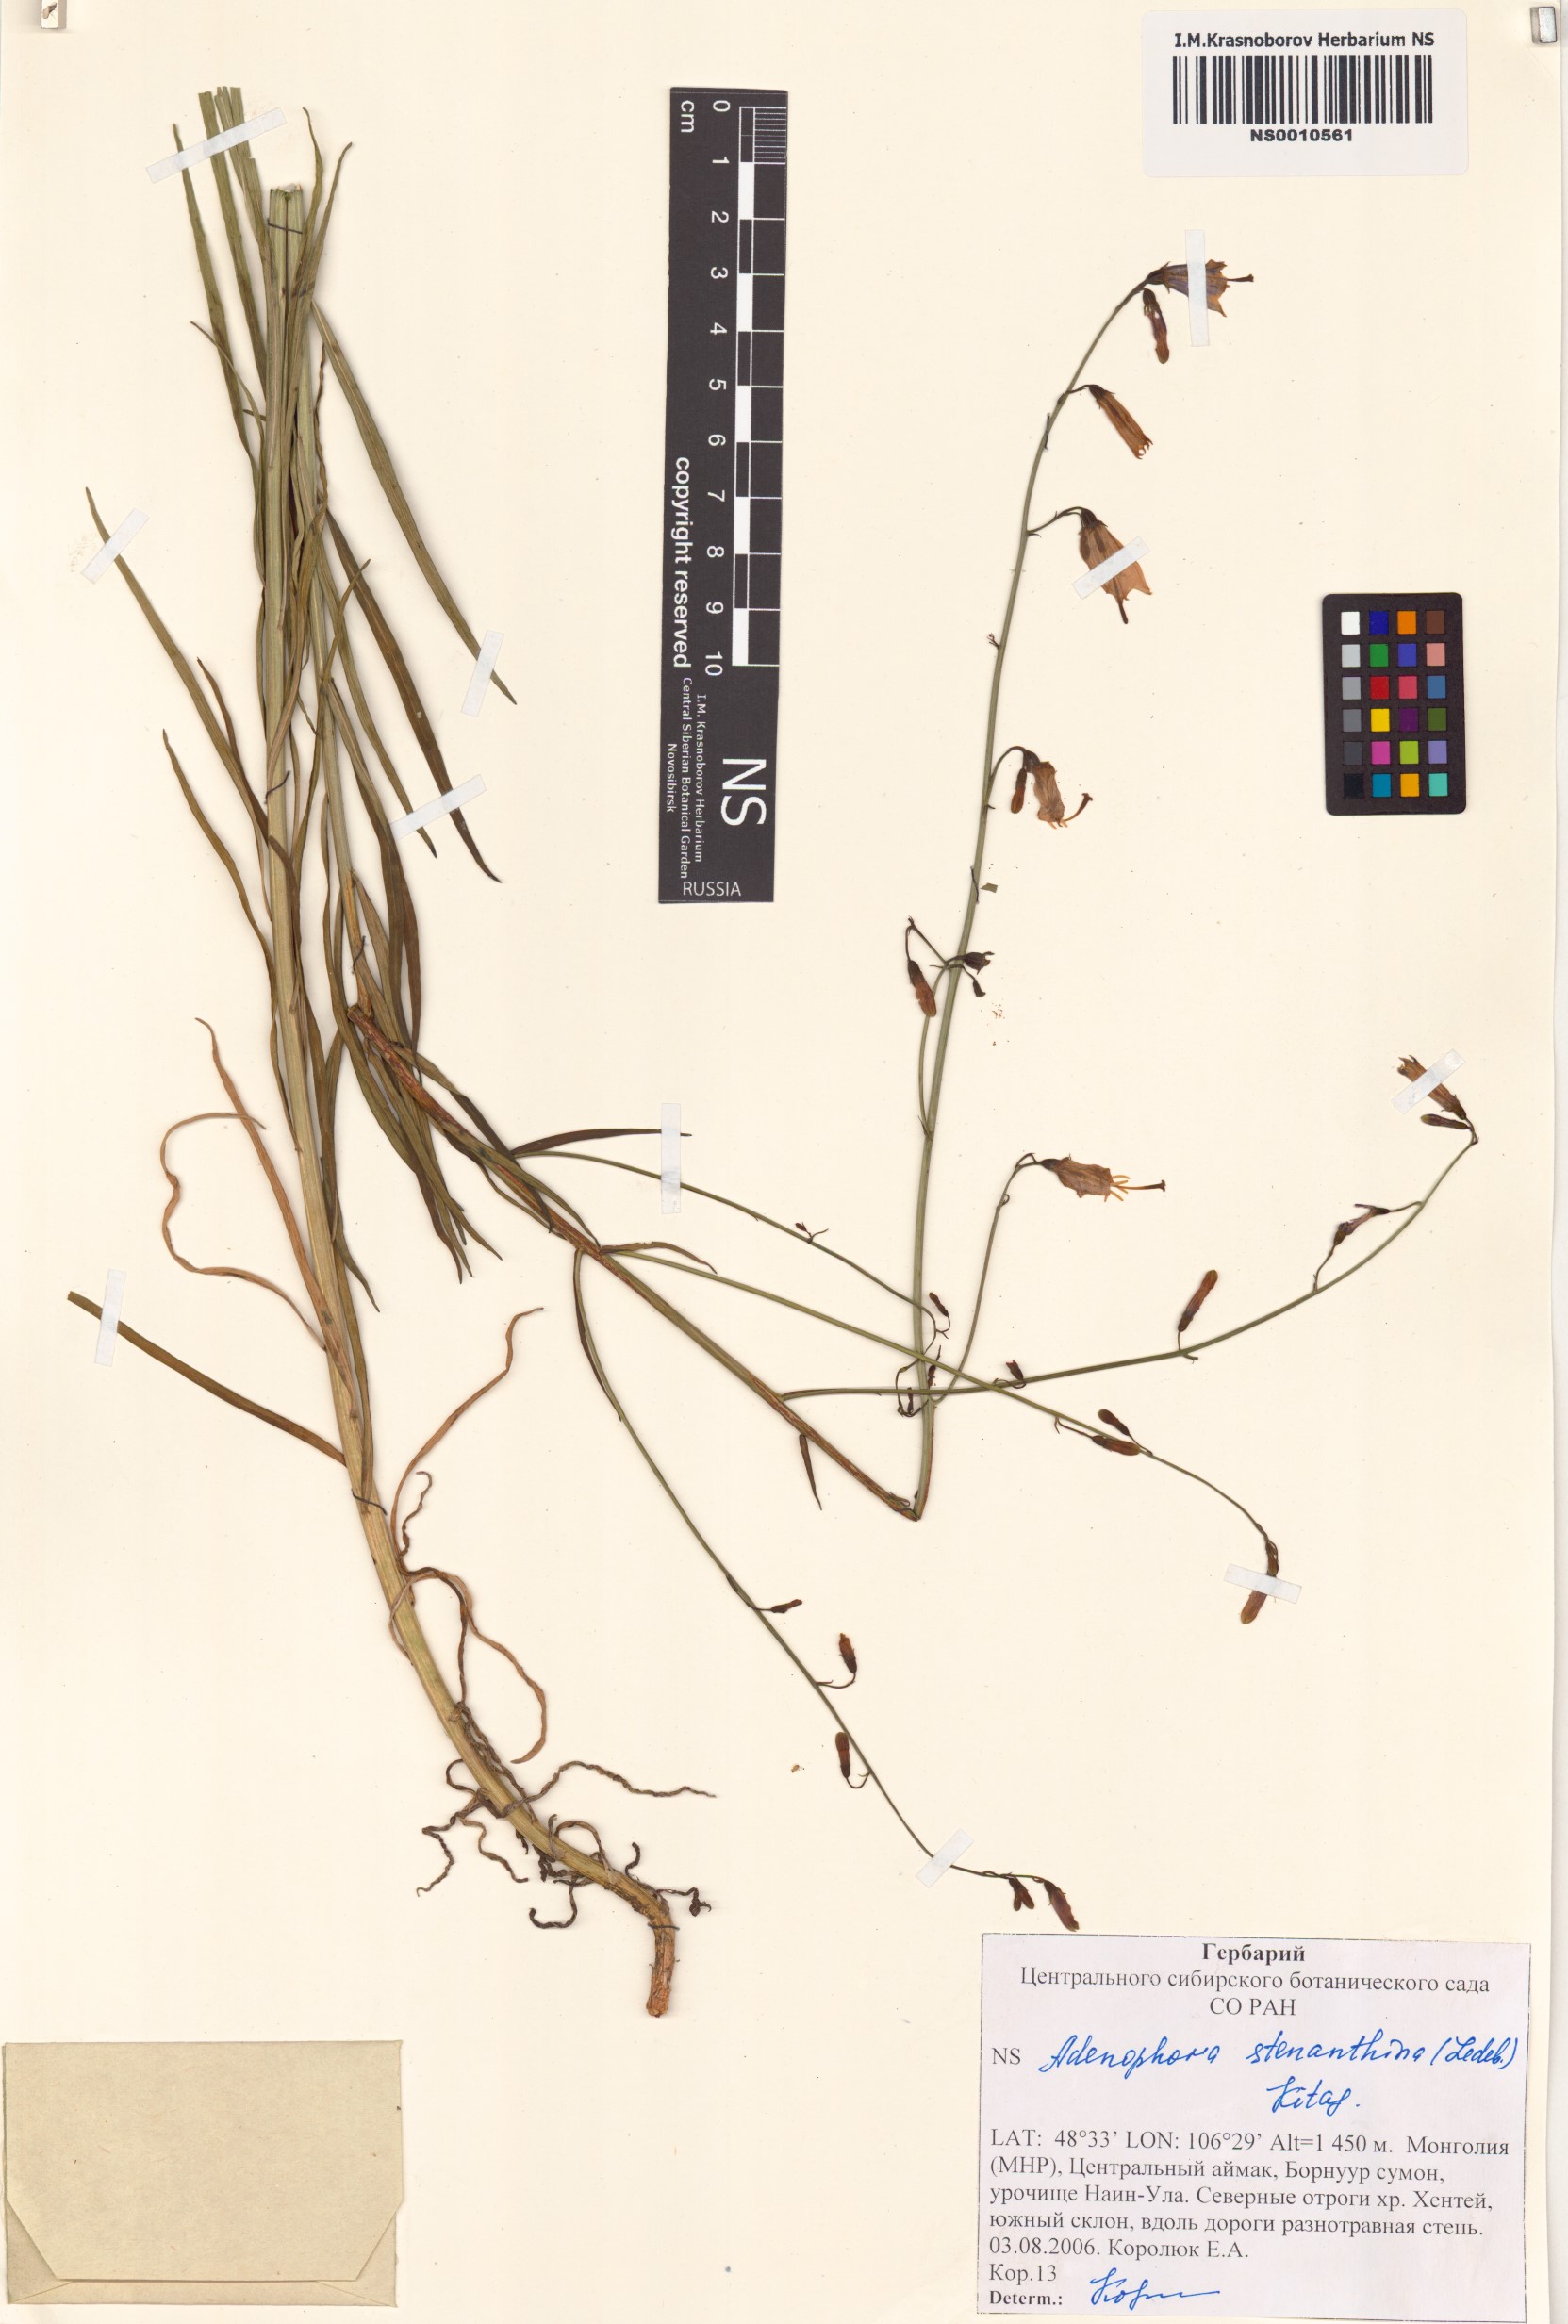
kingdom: Plantae
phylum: Tracheophyta
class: Magnoliopsida
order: Asterales
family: Campanulaceae
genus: Adenophora
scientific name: Adenophora stenanthina
